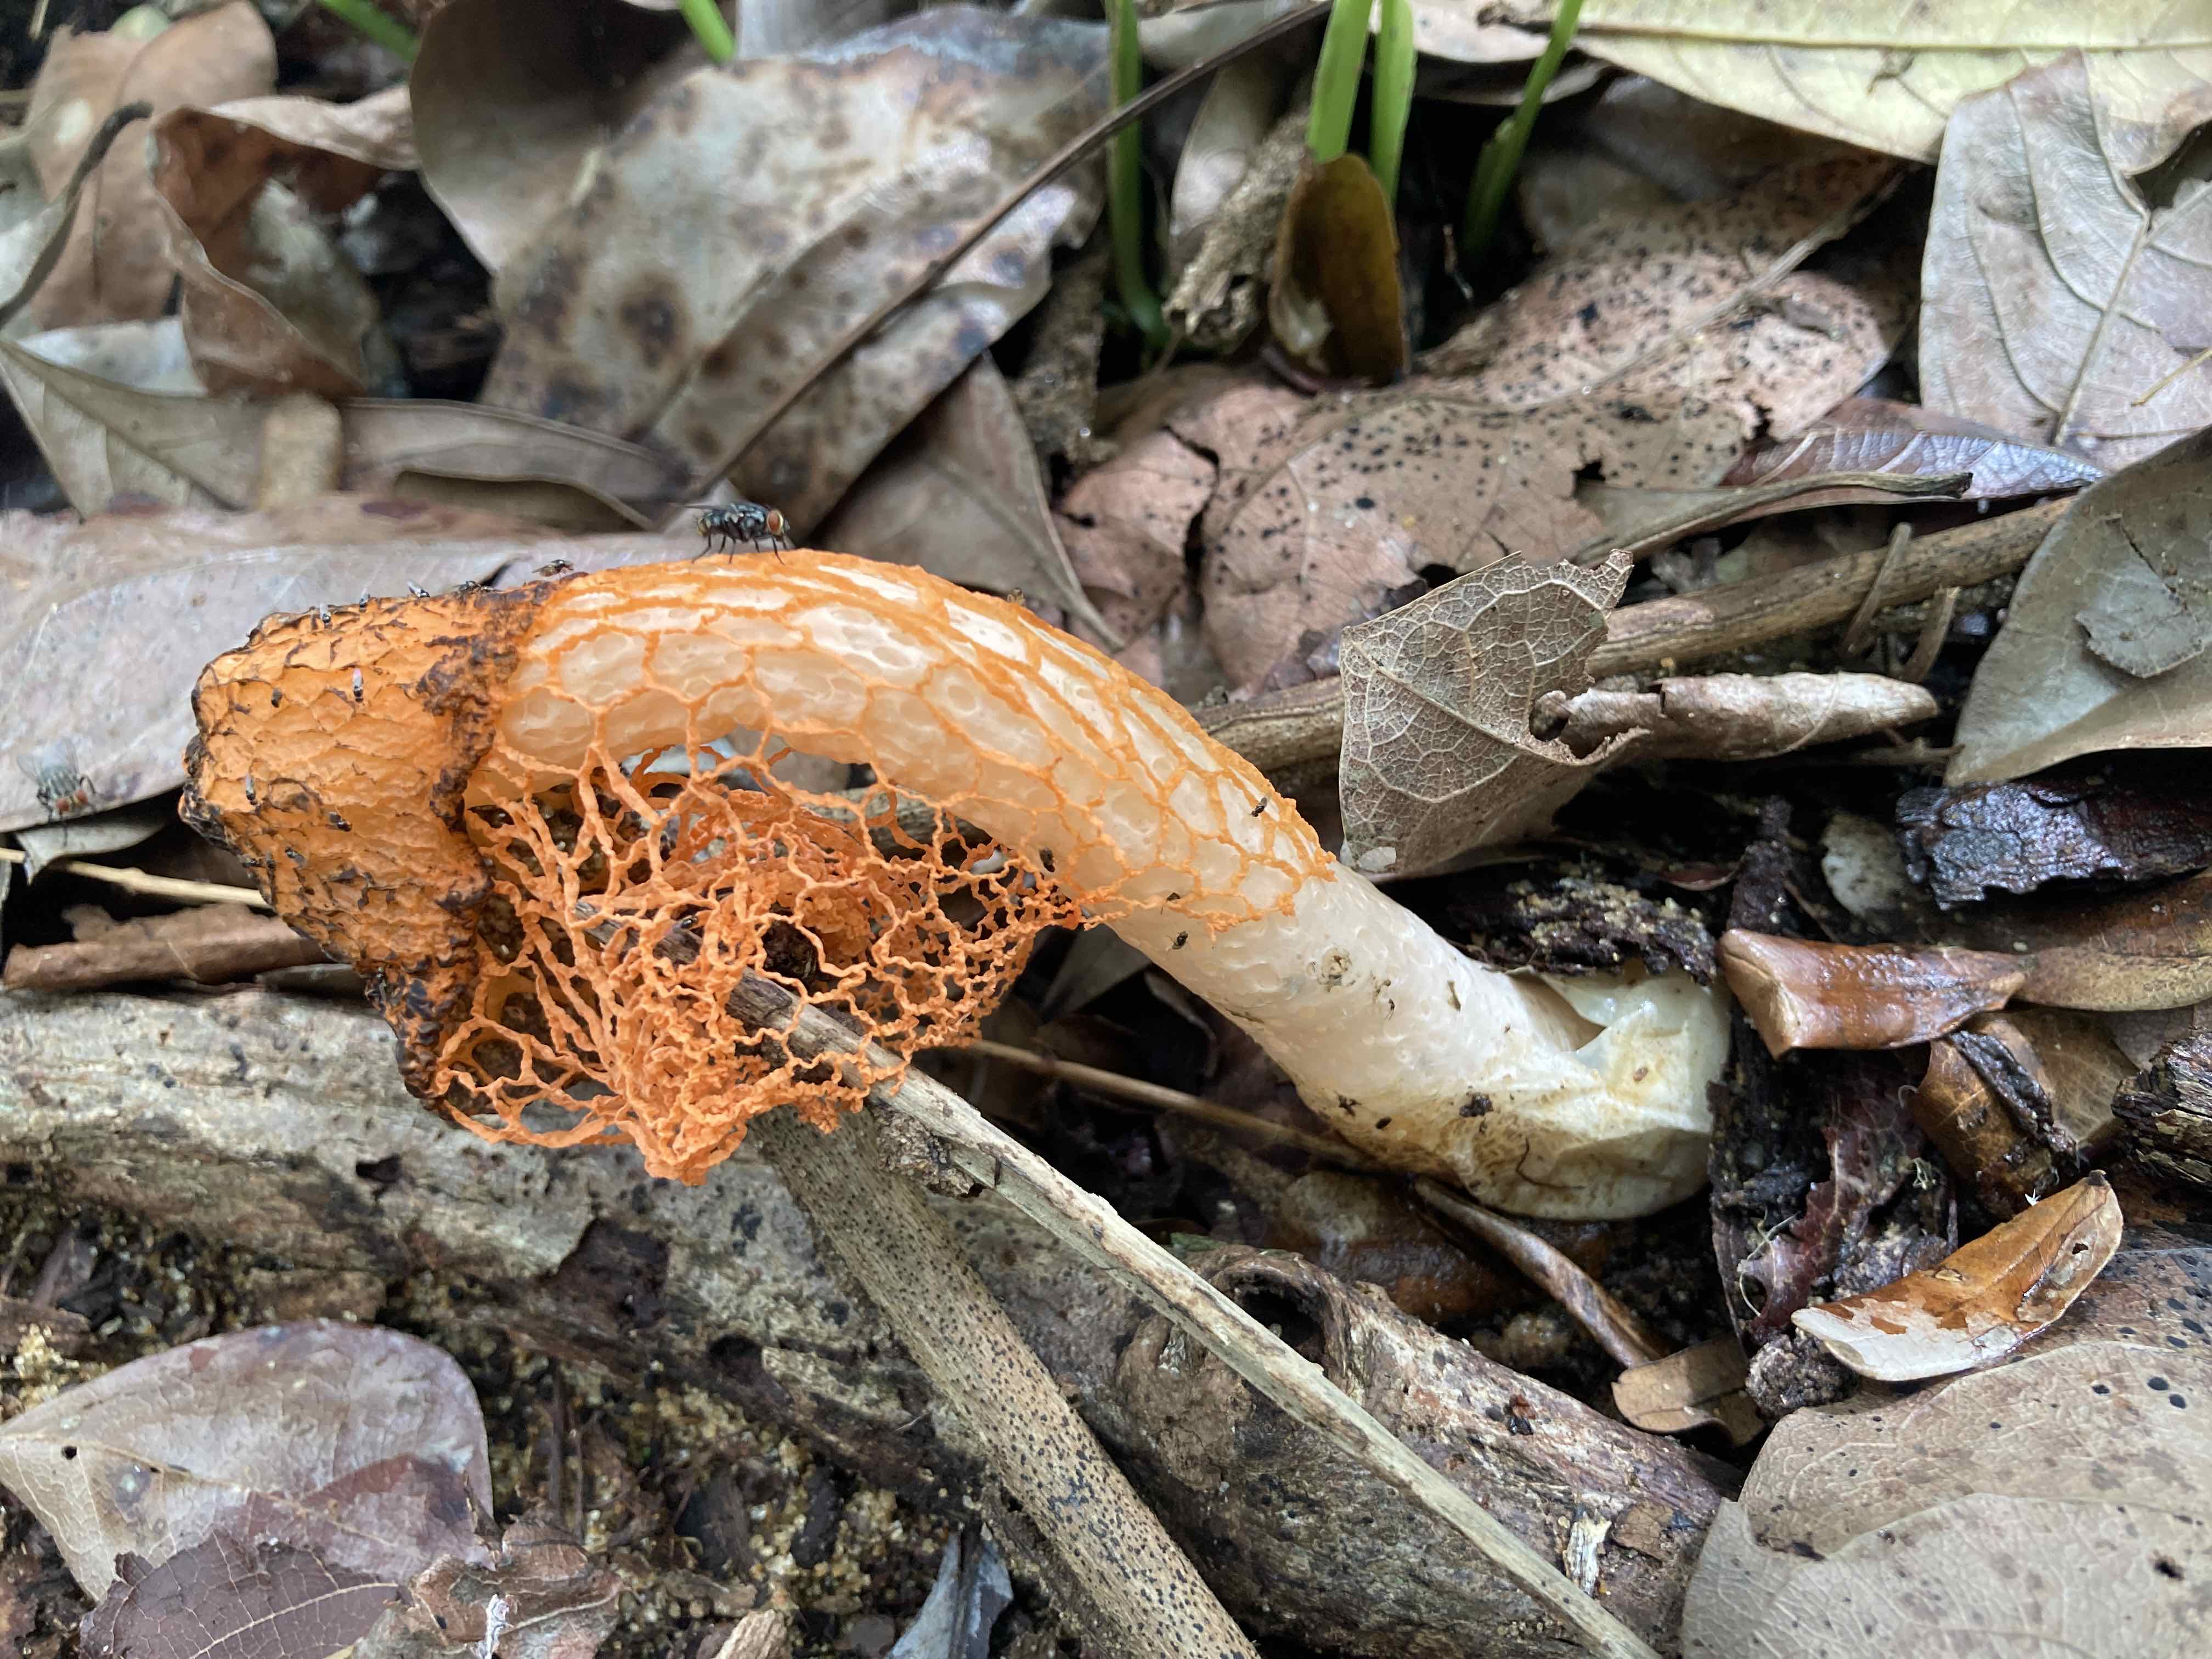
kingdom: Fungi
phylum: Basidiomycota
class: Agaricomycetes
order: Phallales
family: Phallaceae
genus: Phallus
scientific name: Phallus
